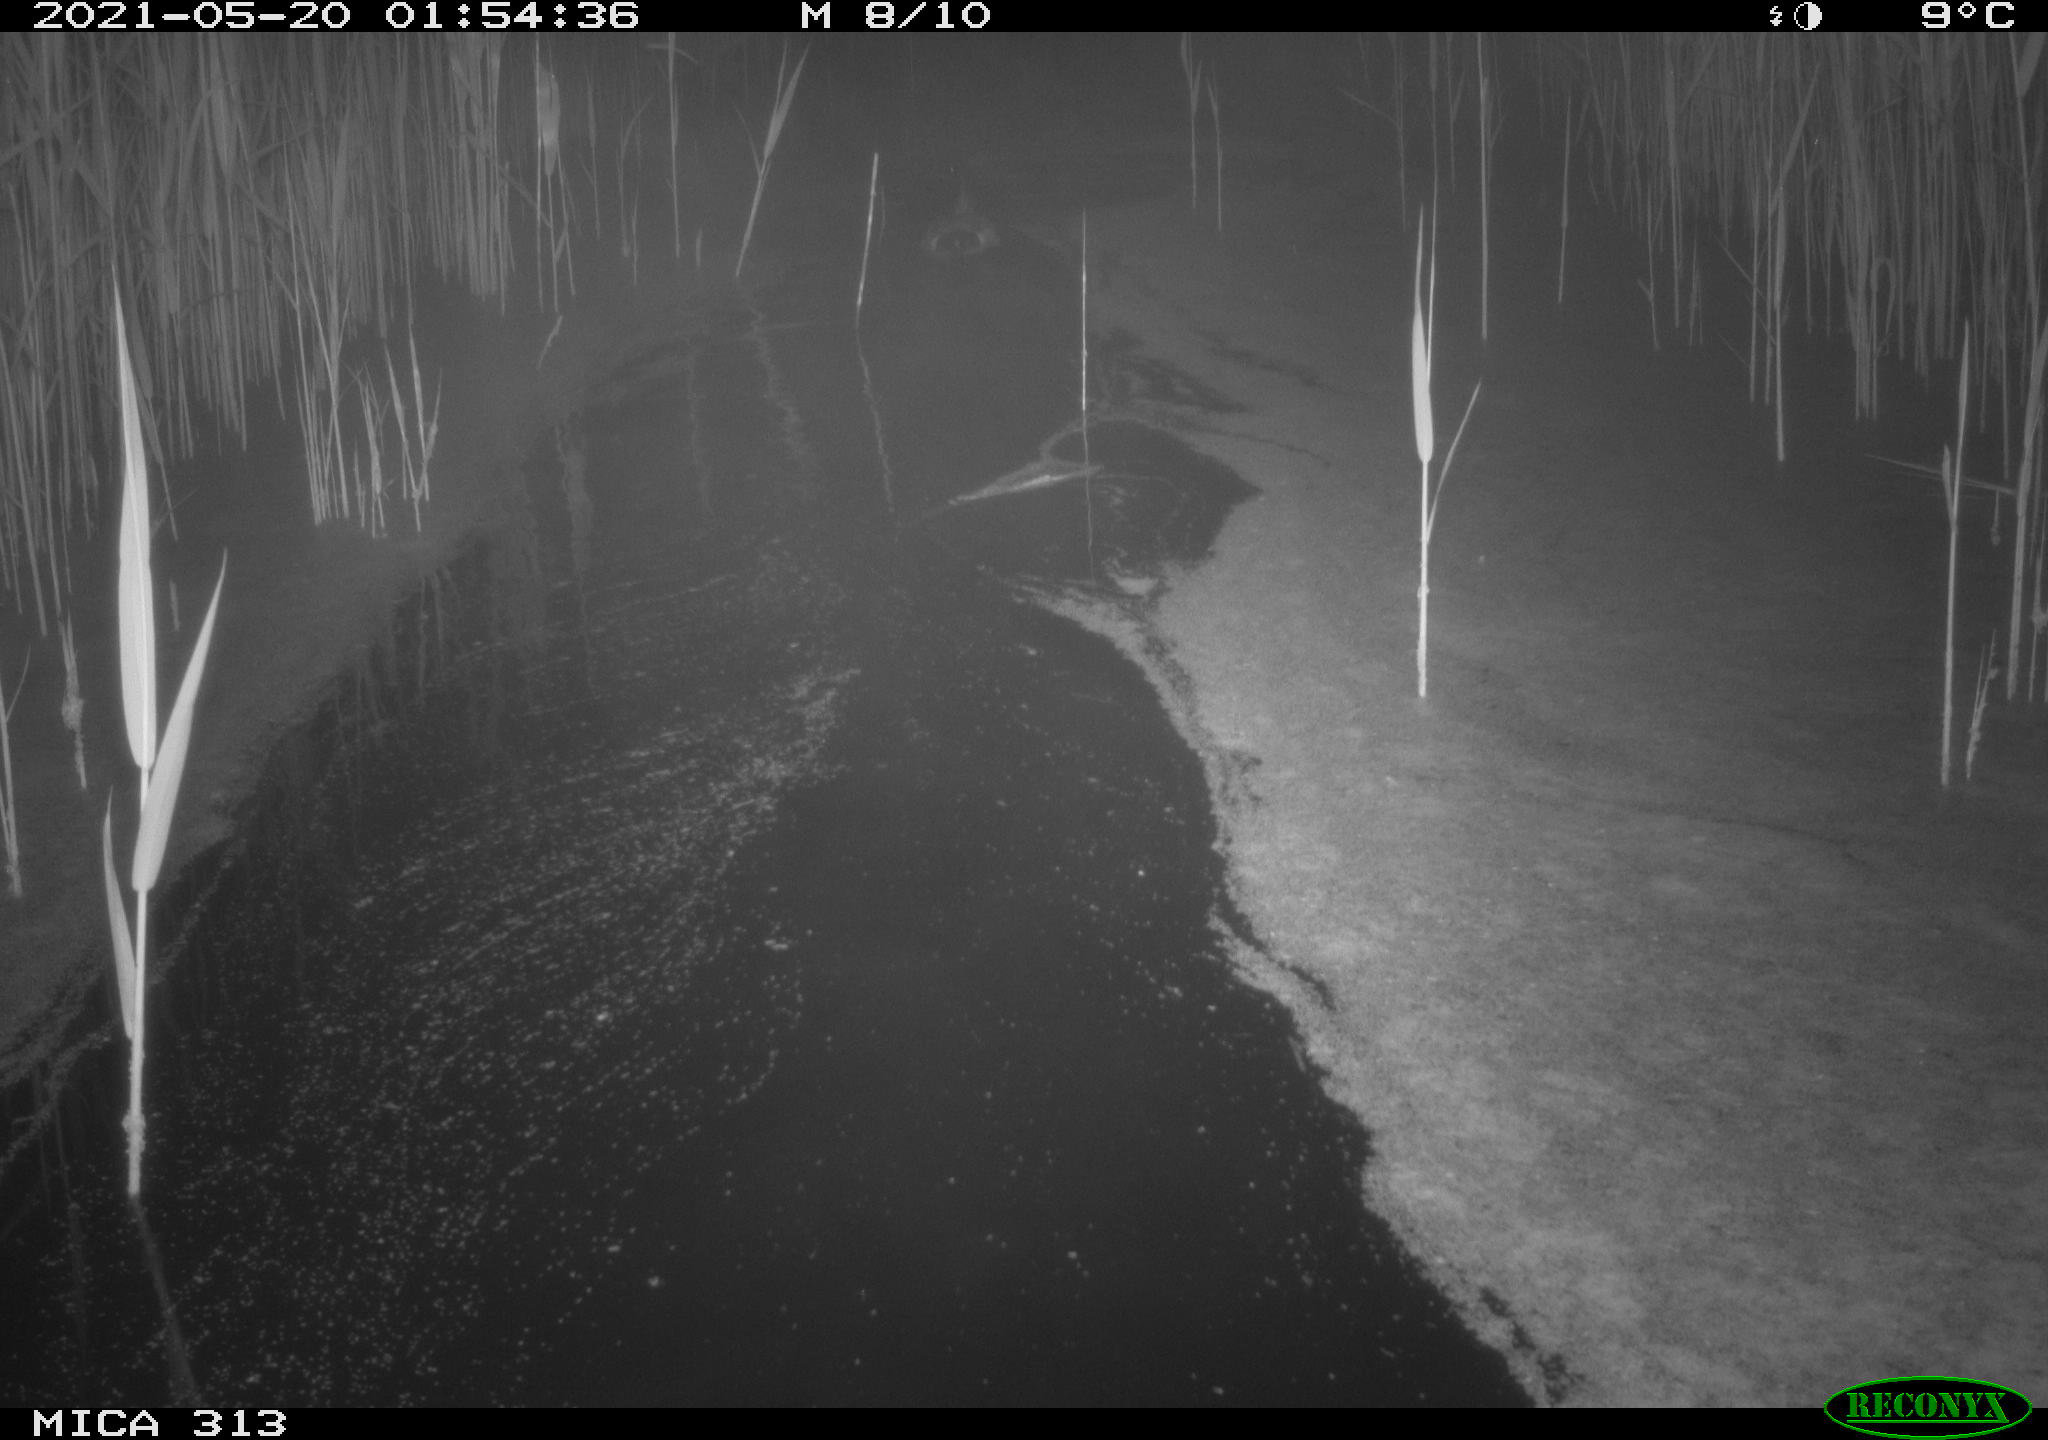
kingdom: Animalia
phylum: Chordata
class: Aves
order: Anseriformes
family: Anatidae
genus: Anas
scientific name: Anas platyrhynchos
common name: Mallard
